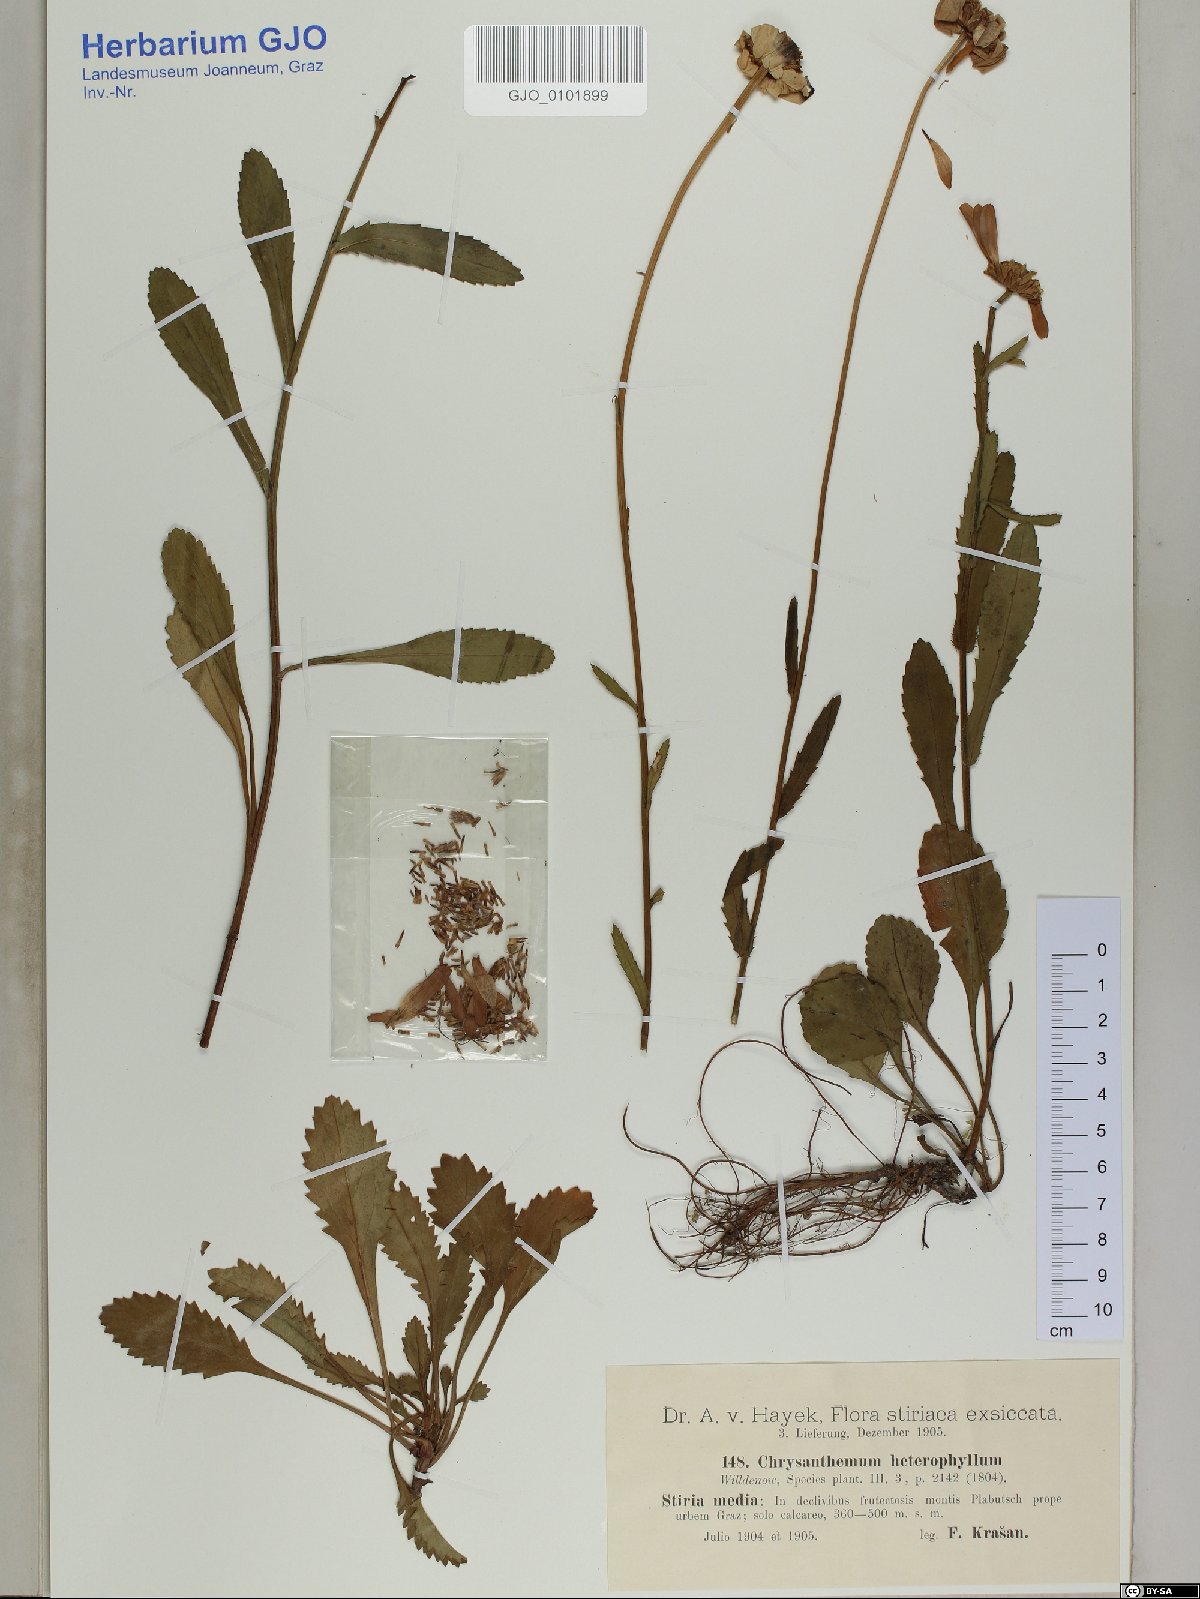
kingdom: Plantae
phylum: Tracheophyta
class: Magnoliopsida
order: Asterales
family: Asteraceae
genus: Leucanthemum
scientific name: Leucanthemum heterophyllum
